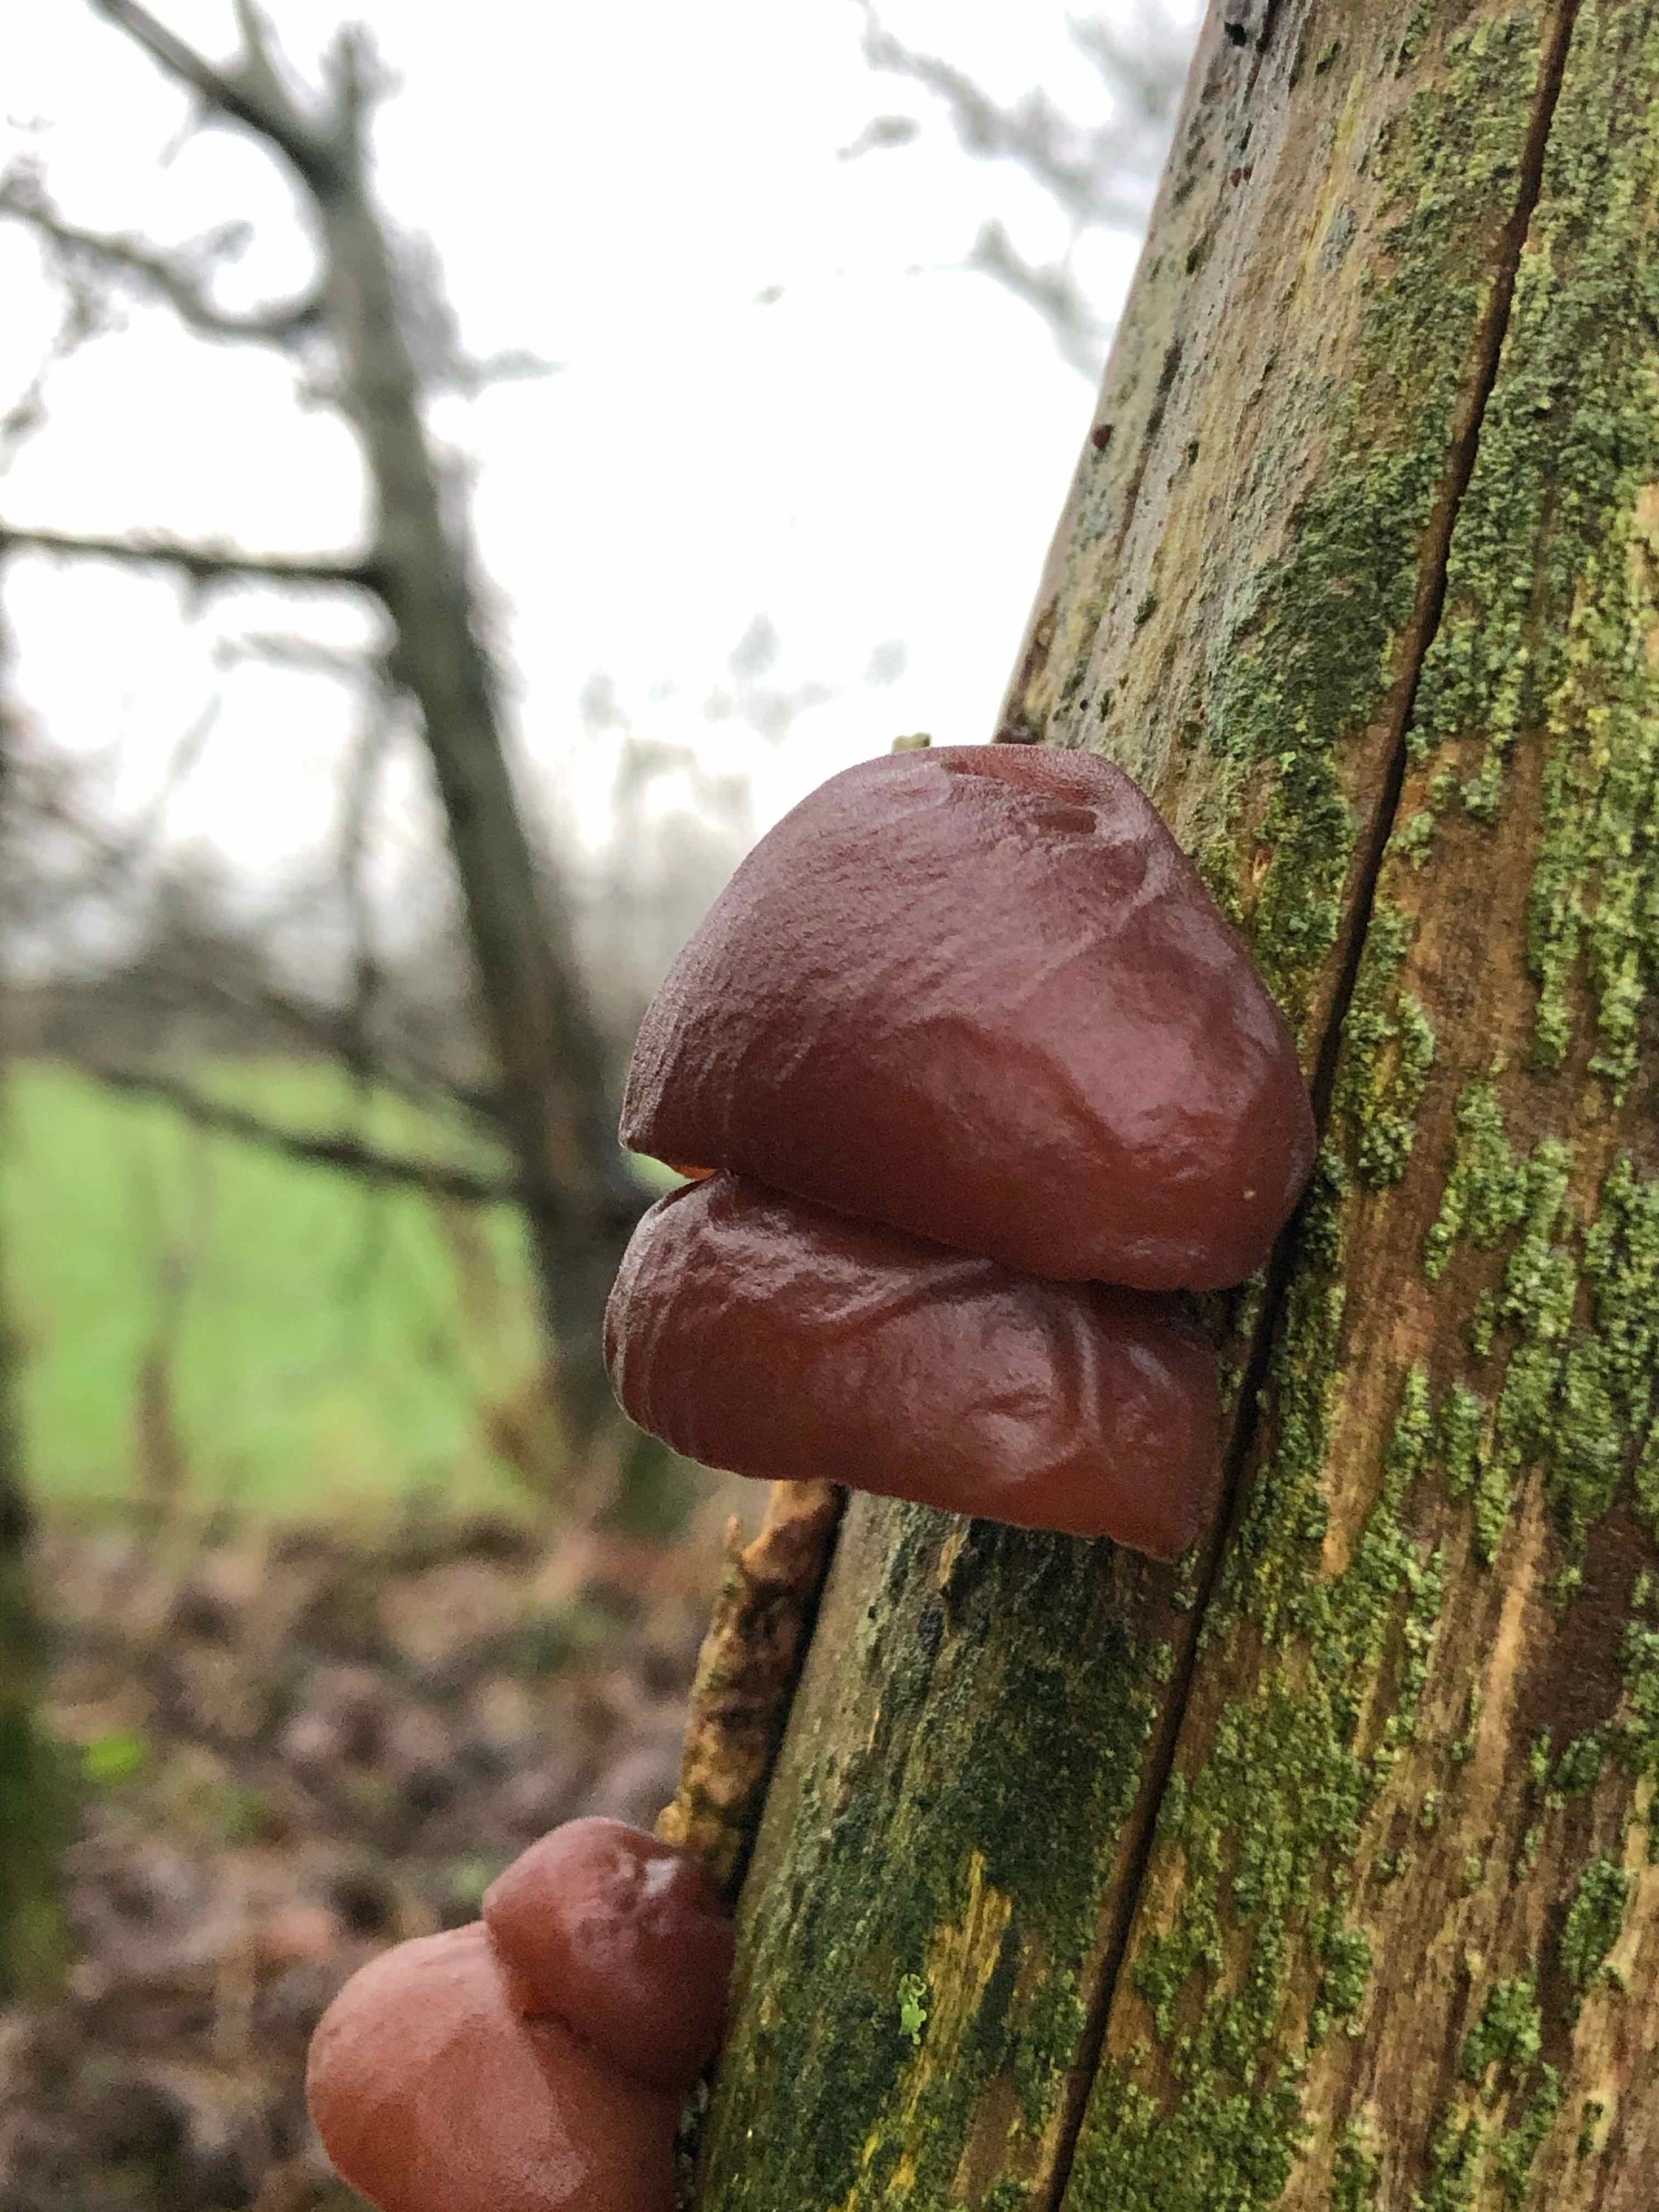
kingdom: Fungi
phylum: Basidiomycota
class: Agaricomycetes
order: Auriculariales
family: Auriculariaceae
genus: Auricularia
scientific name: Auricularia auricula-judae
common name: almindelig judasøre
